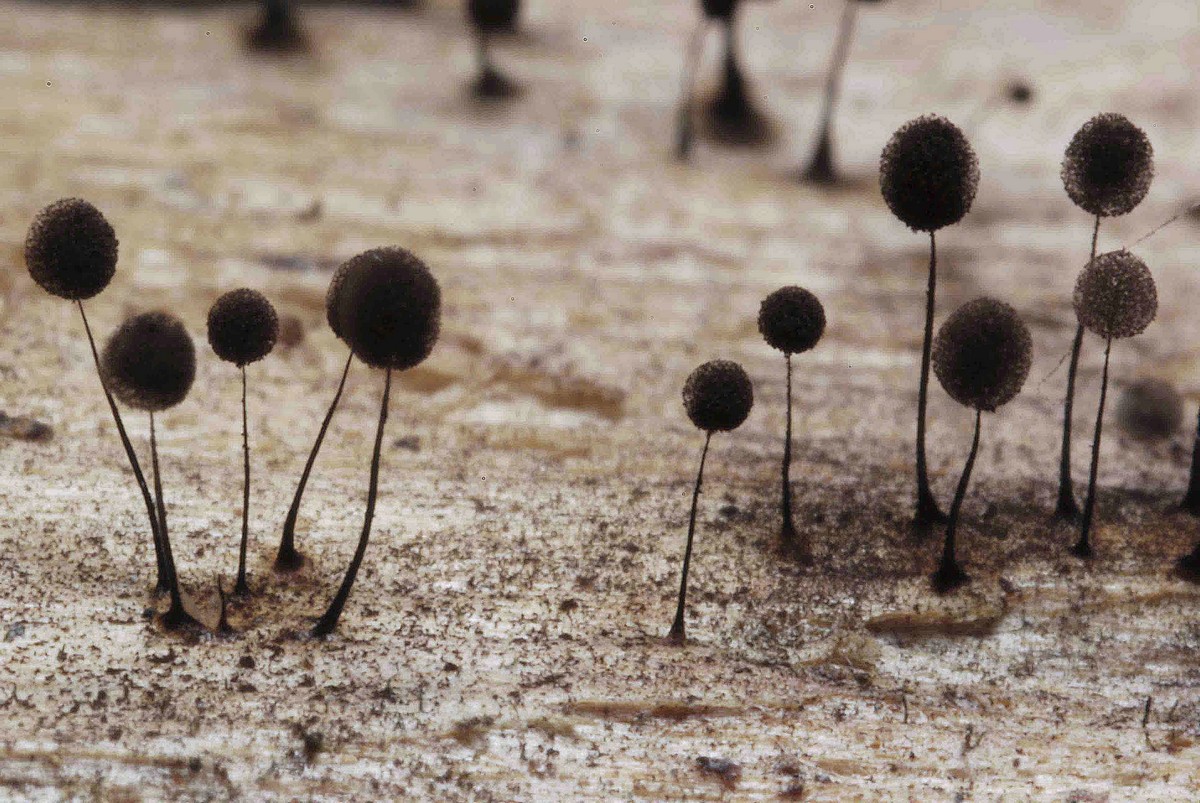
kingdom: Protozoa
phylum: Mycetozoa
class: Myxomycetes
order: Stemonitidales
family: Stemonitidaceae
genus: Comatricha
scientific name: Comatricha nigra
